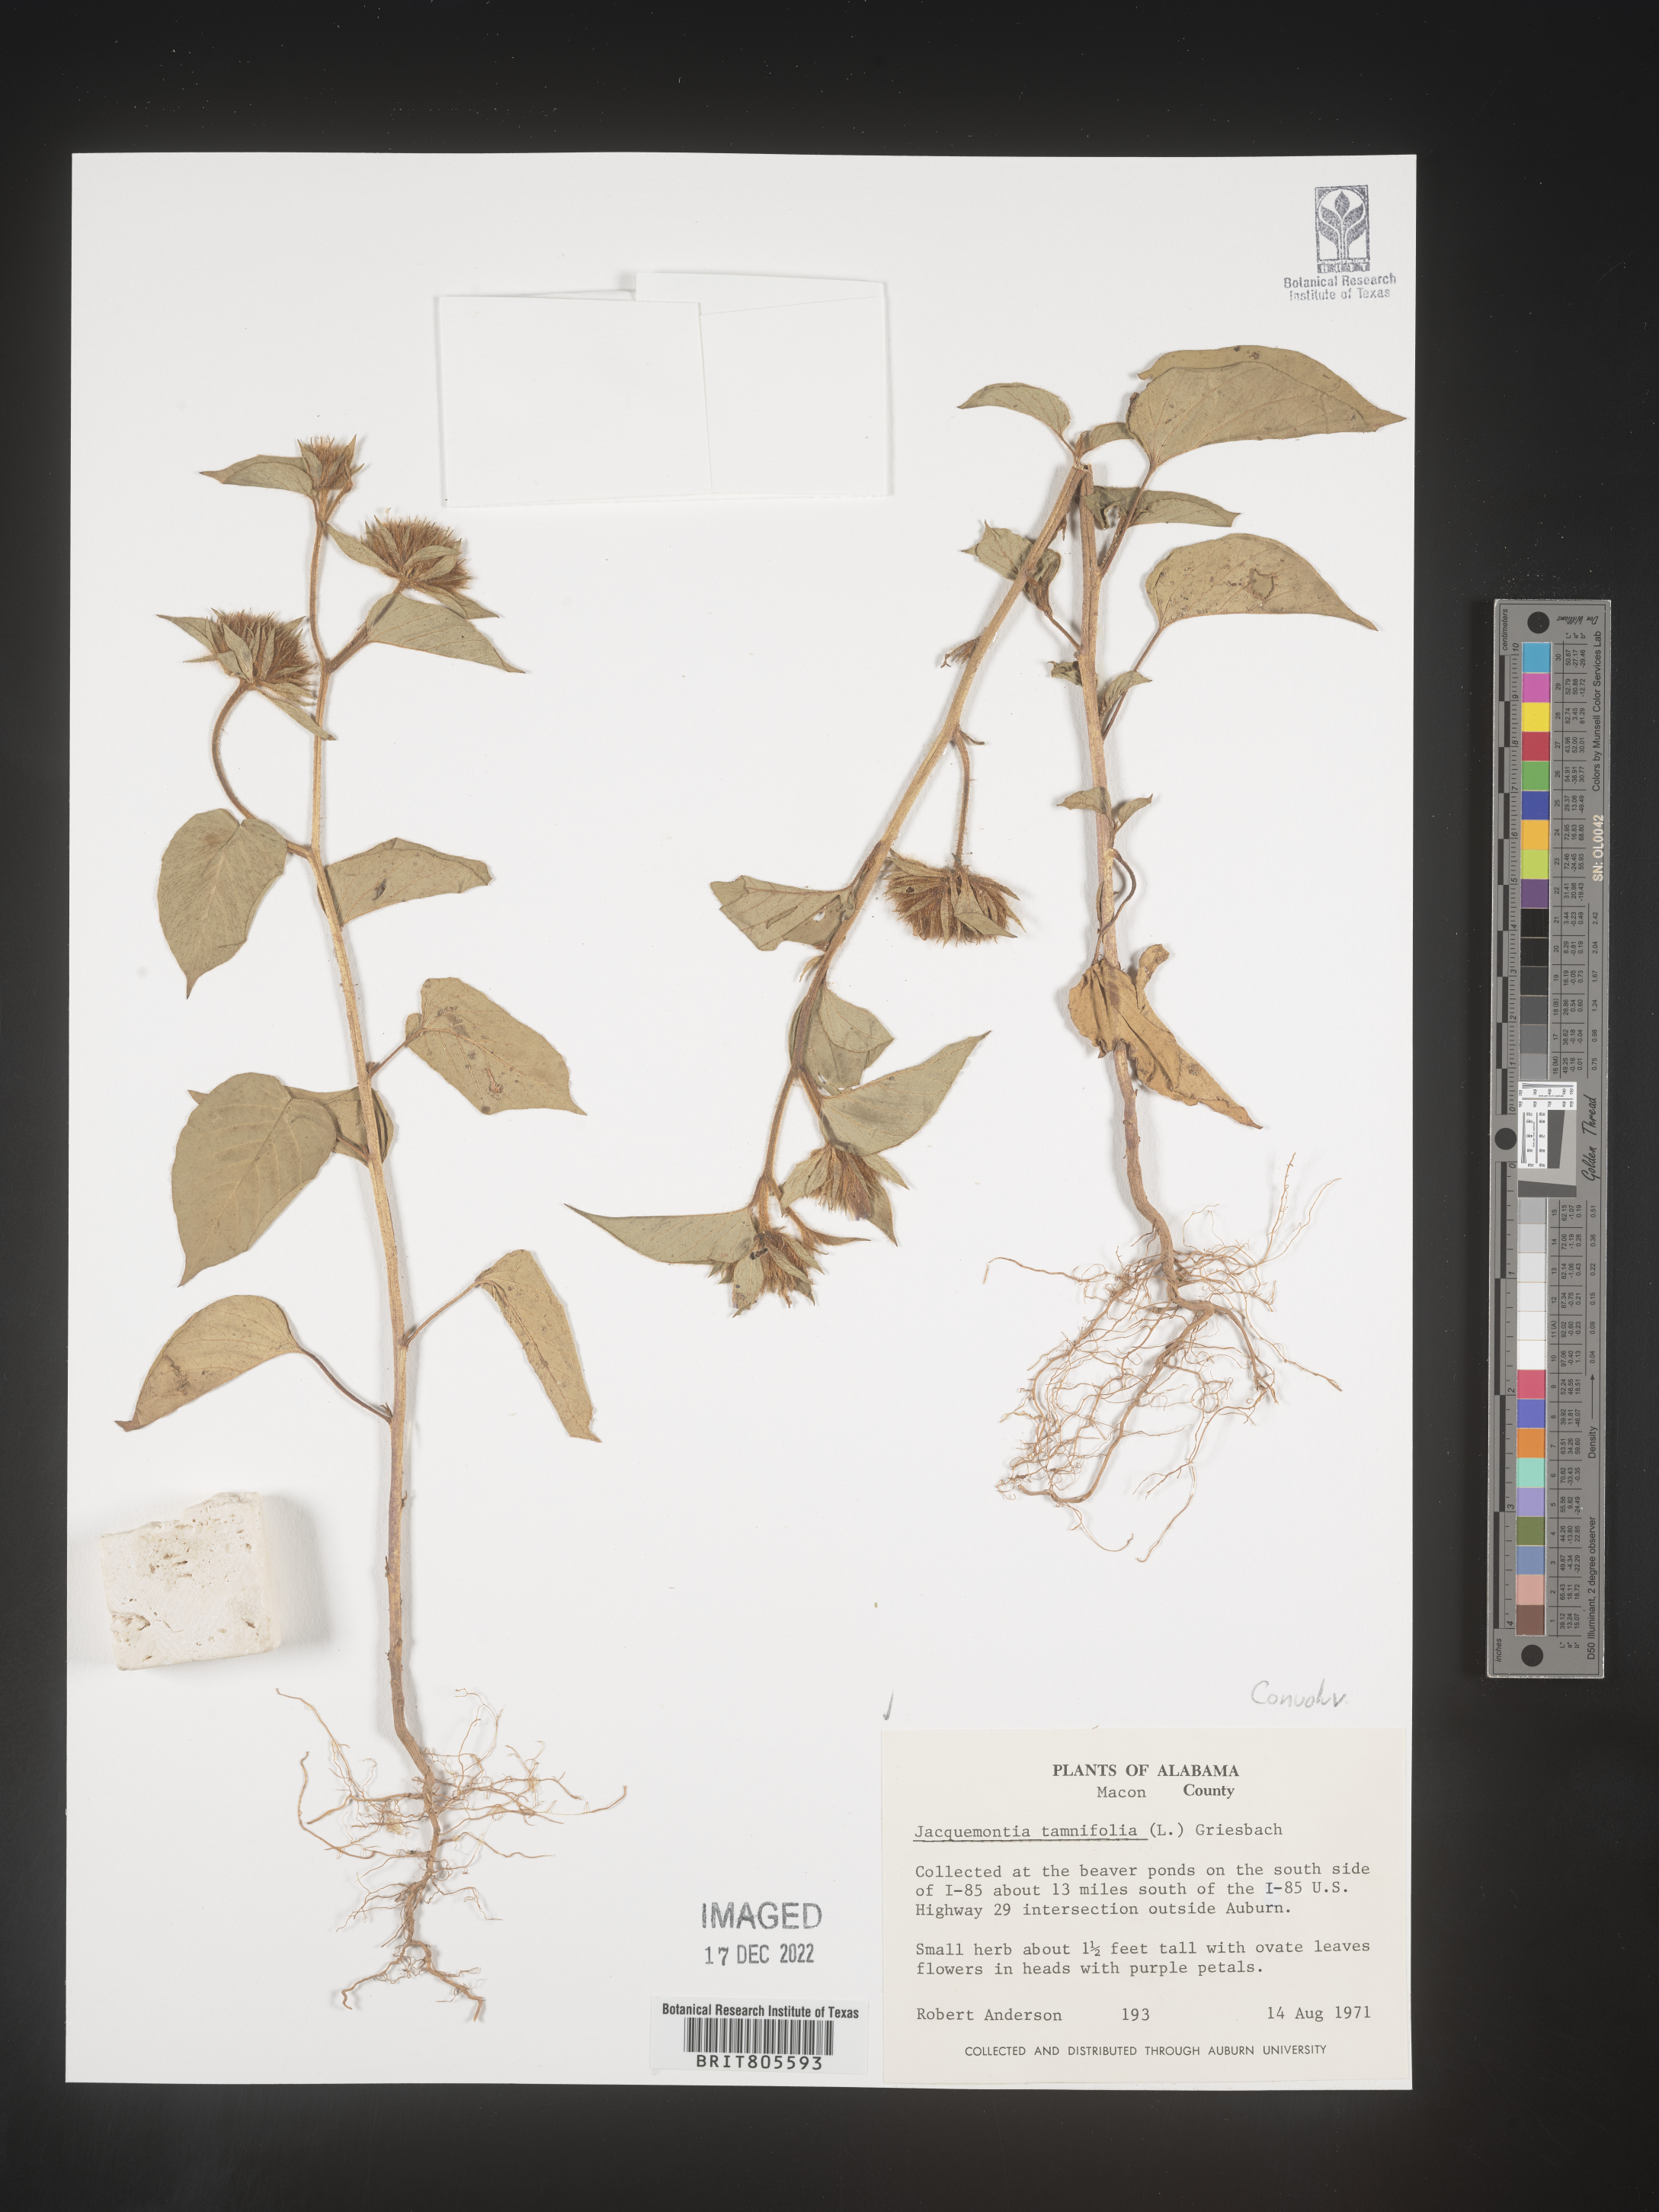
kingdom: Plantae
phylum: Tracheophyta
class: Magnoliopsida
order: Solanales
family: Convolvulaceae
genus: Jacquemontia
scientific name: Jacquemontia tamnifolia
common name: Hairy clustervine
